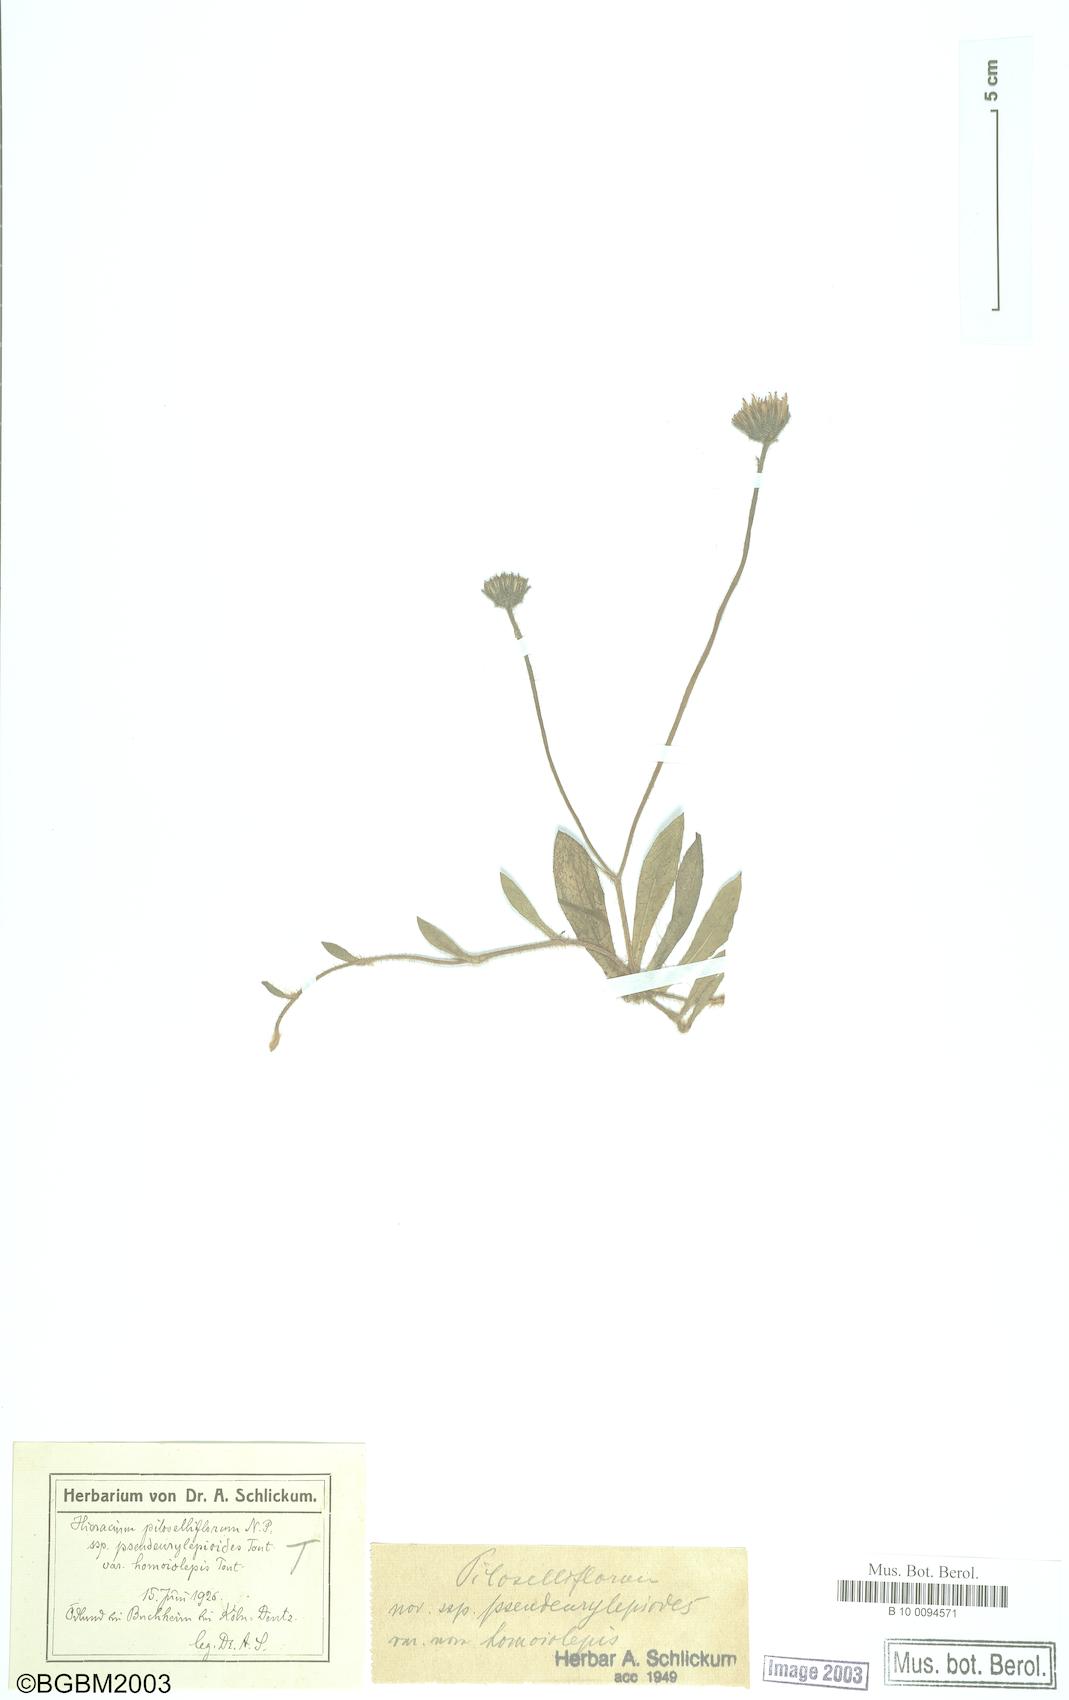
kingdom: Plantae
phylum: Tracheophyta
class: Magnoliopsida
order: Asterales
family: Asteraceae
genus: Pilosella
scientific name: Pilosella piloselliflora
